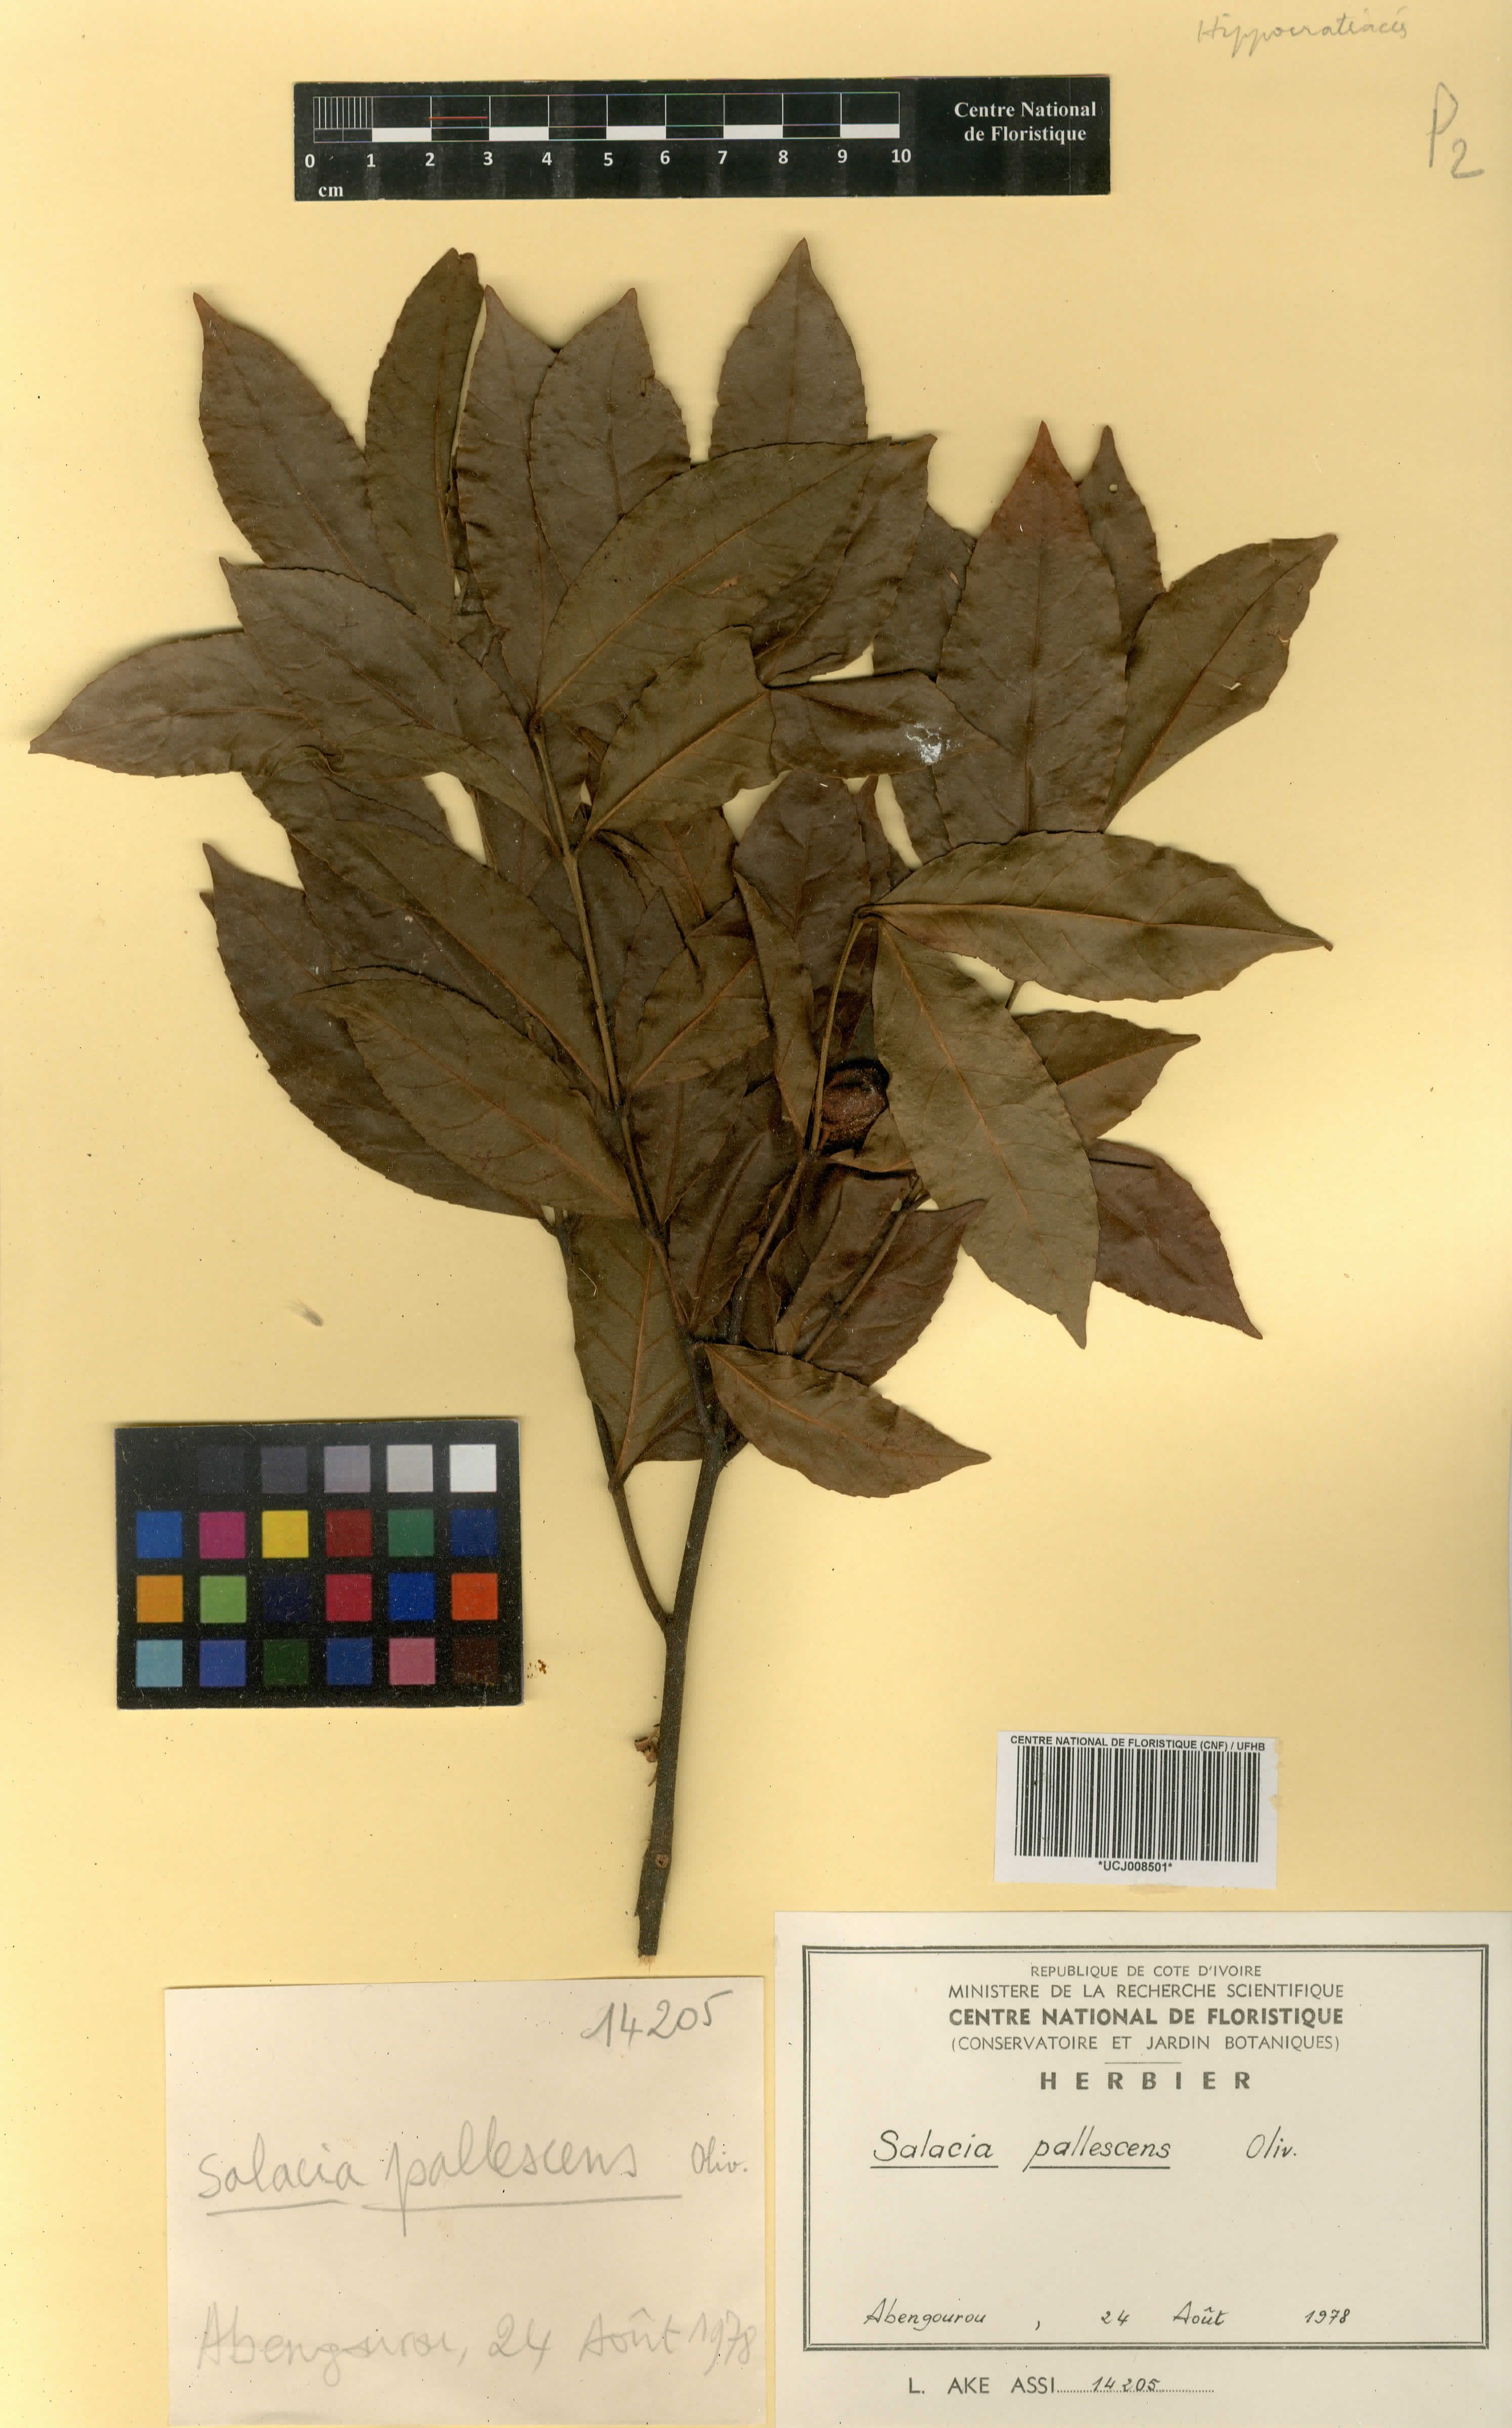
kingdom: Plantae
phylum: Tracheophyta
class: Magnoliopsida
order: Celastrales
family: Celastraceae
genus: Salacia
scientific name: Salacia pallescens
